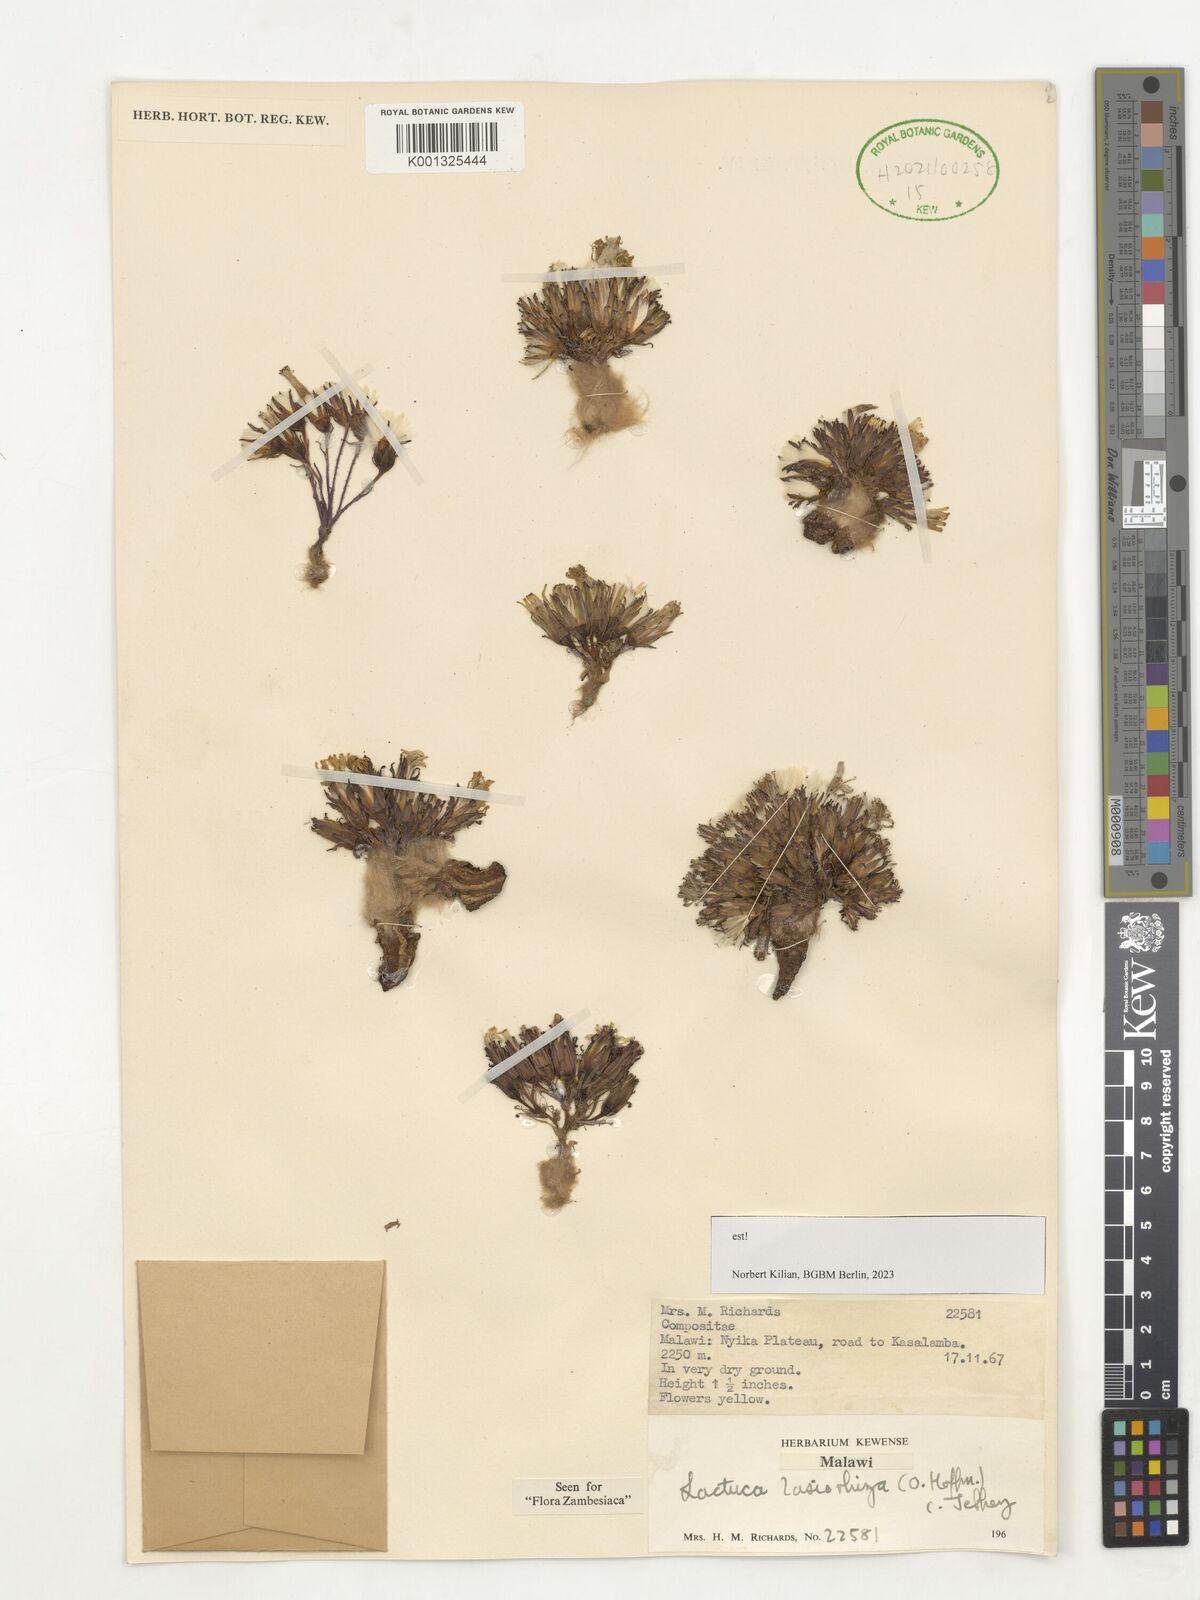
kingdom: Plantae
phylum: Tracheophyta
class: Magnoliopsida
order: Asterales
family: Asteraceae
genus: Lactuca
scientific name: Lactuca lasiorhiza
